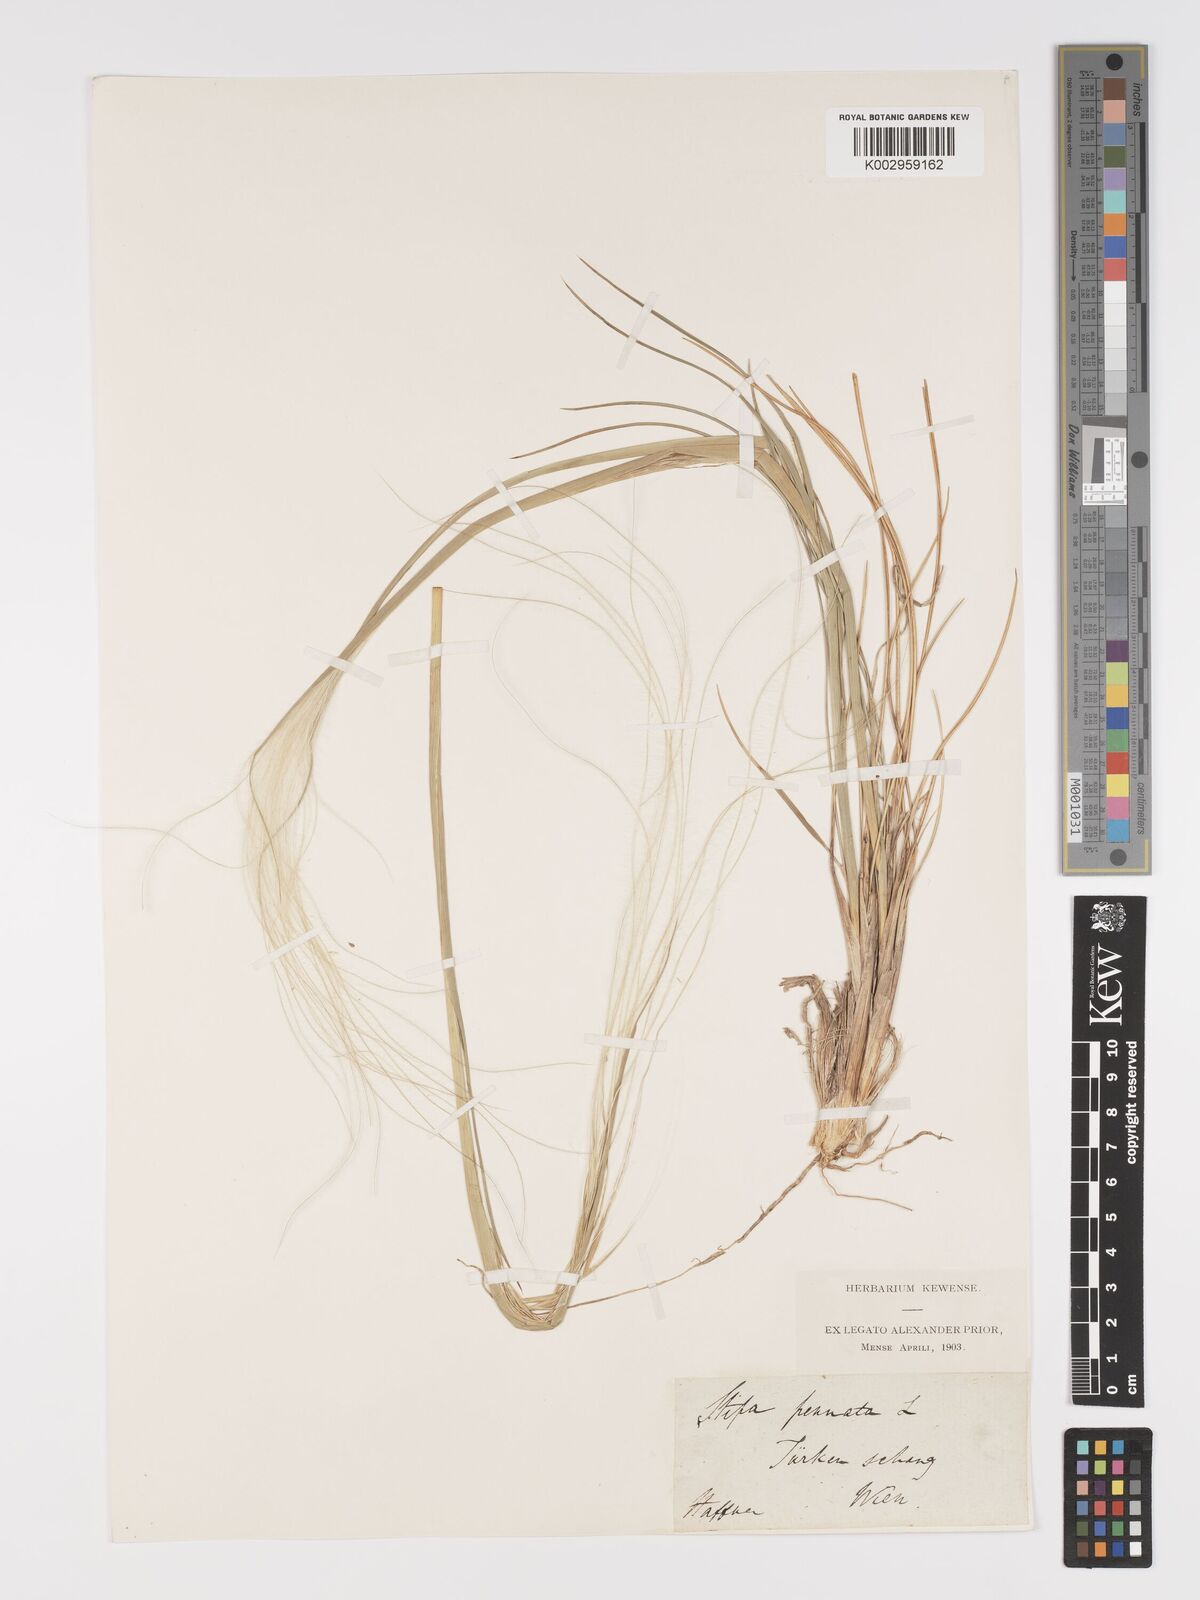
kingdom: Plantae
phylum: Tracheophyta
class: Liliopsida
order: Poales
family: Poaceae
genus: Stipa
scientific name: Stipa pennata
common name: European feather grass
